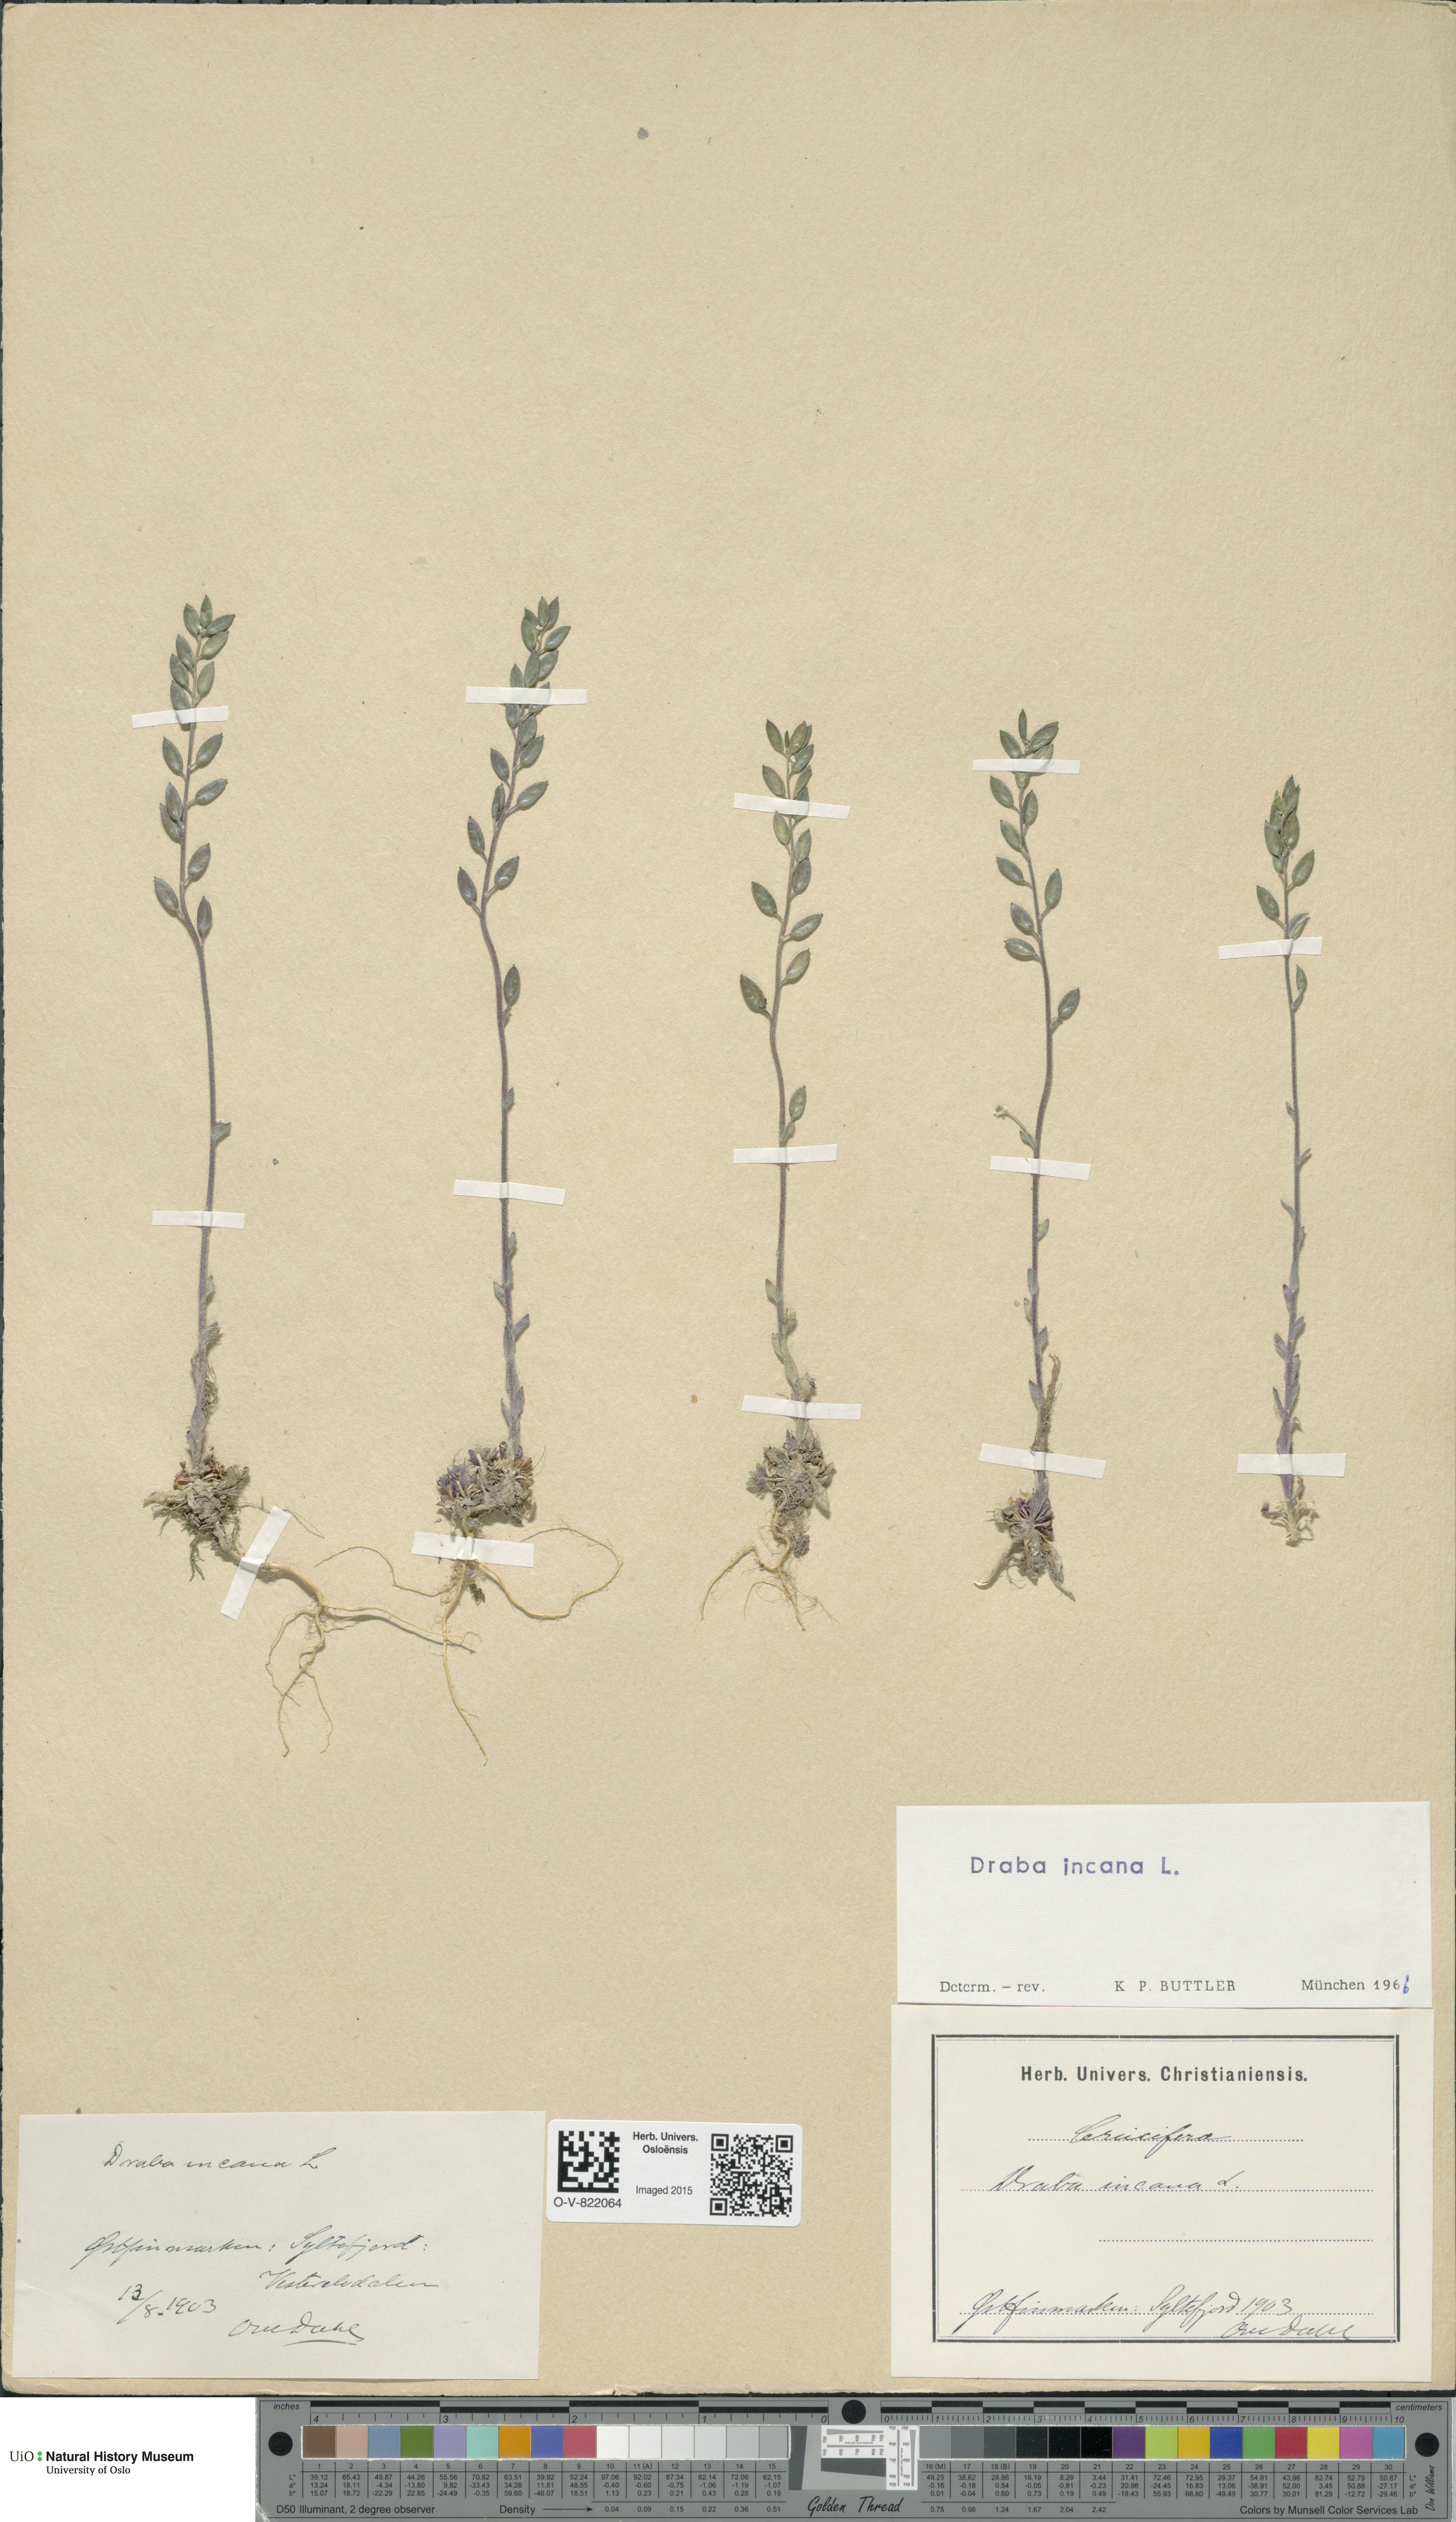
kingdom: Plantae
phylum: Tracheophyta
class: Magnoliopsida
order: Brassicales
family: Brassicaceae
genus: Draba
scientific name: Draba incana
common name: Hoary whitlow-grass
